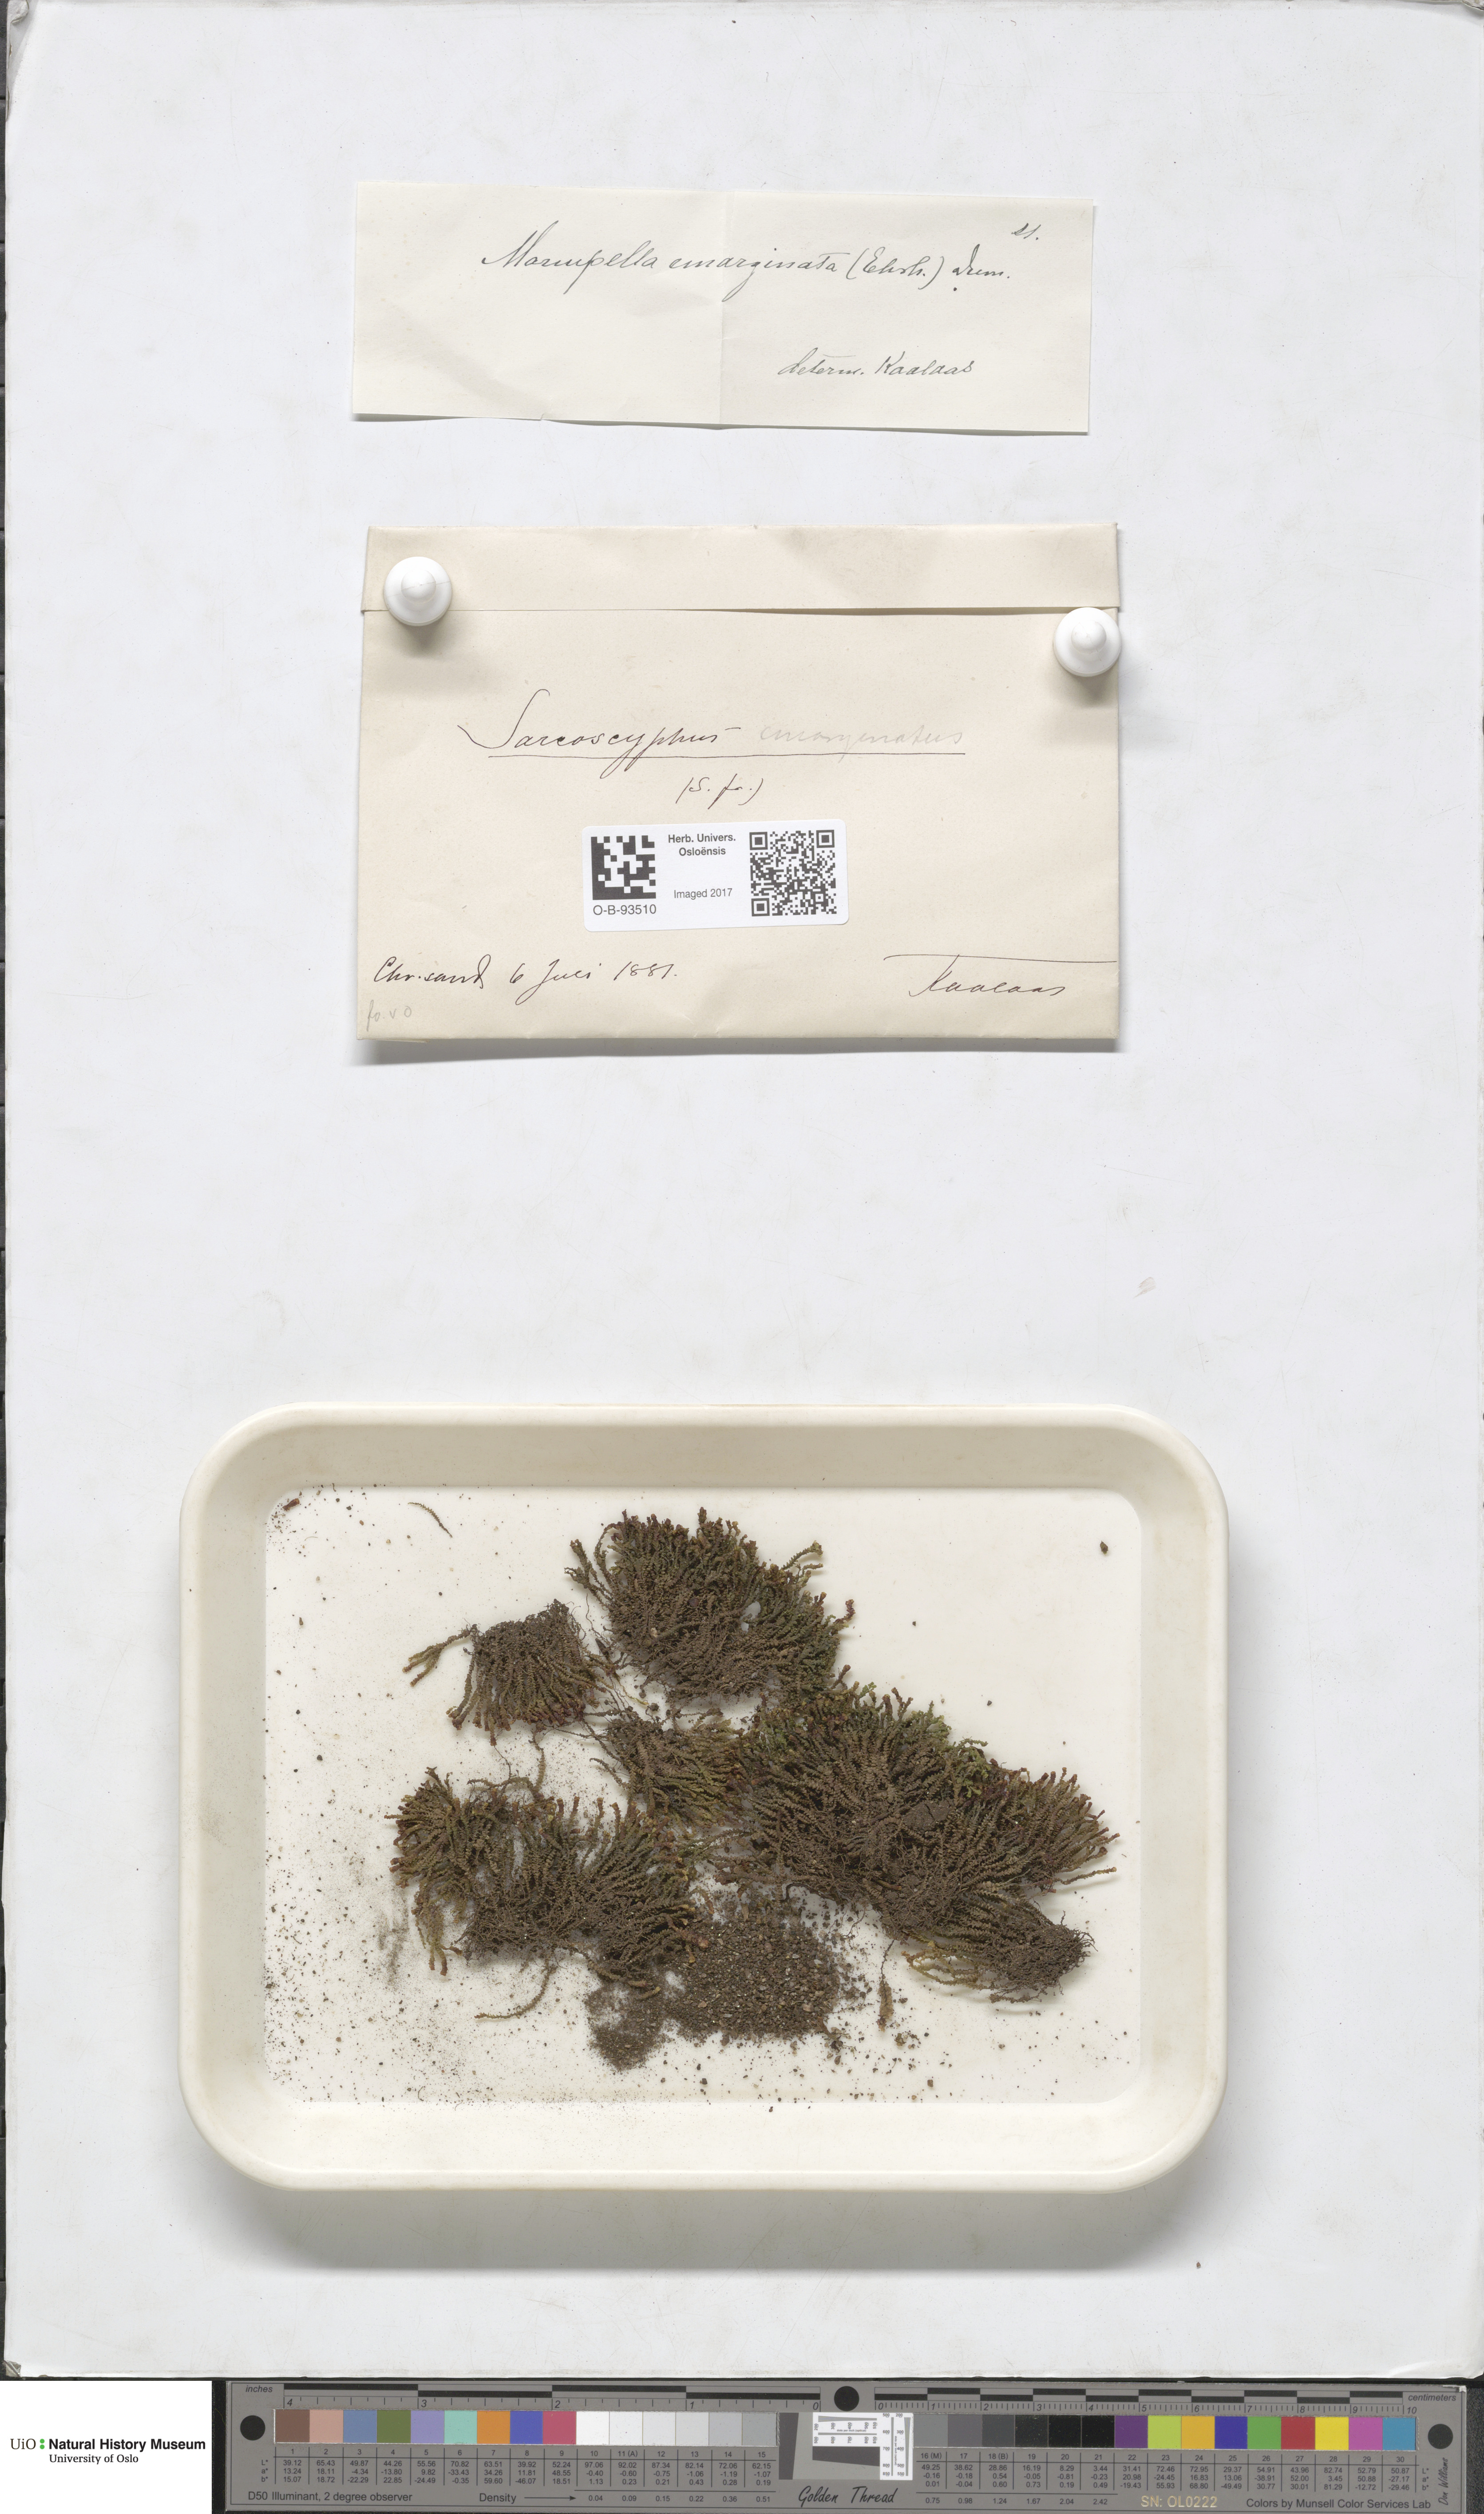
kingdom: Plantae
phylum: Marchantiophyta
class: Jungermanniopsida
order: Jungermanniales
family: Gymnomitriaceae
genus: Marsupella
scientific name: Marsupella emarginata
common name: Notched rustwort
